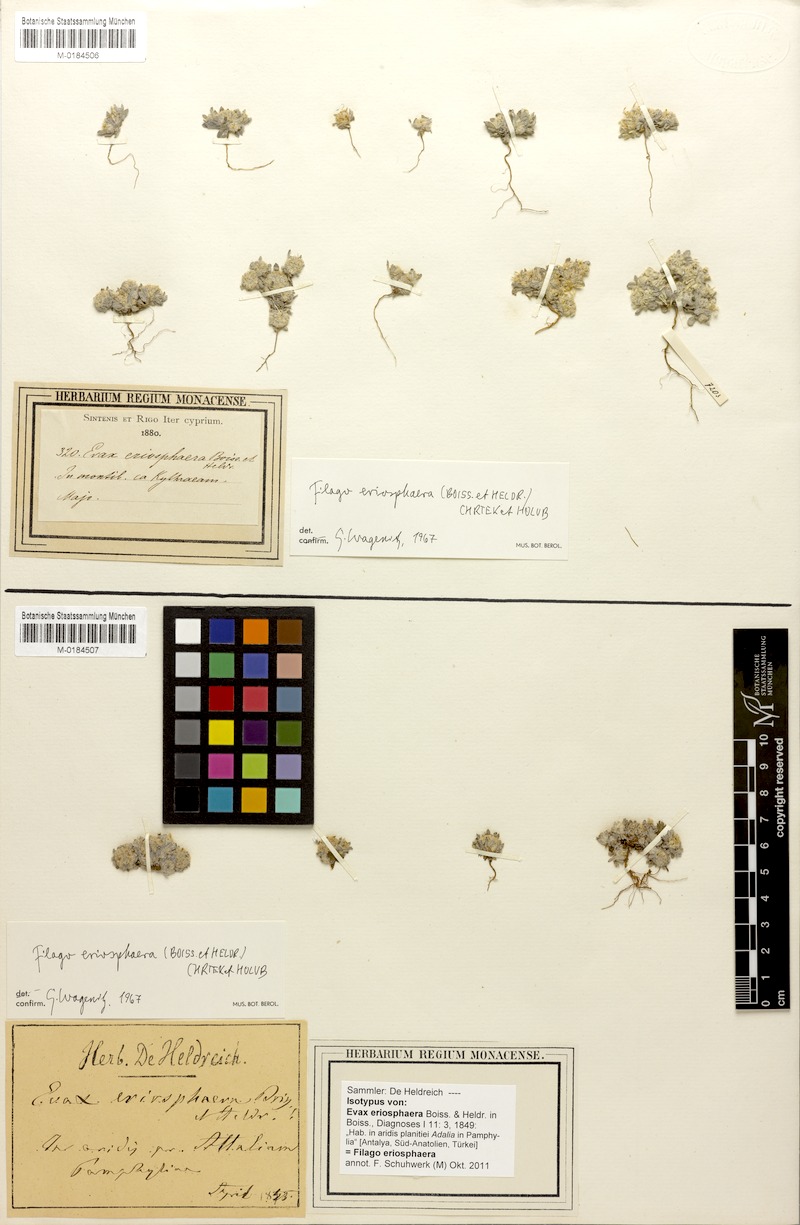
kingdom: Plantae
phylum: Tracheophyta
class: Magnoliopsida
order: Asterales
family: Asteraceae
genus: Filago
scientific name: Filago eriosphaera
